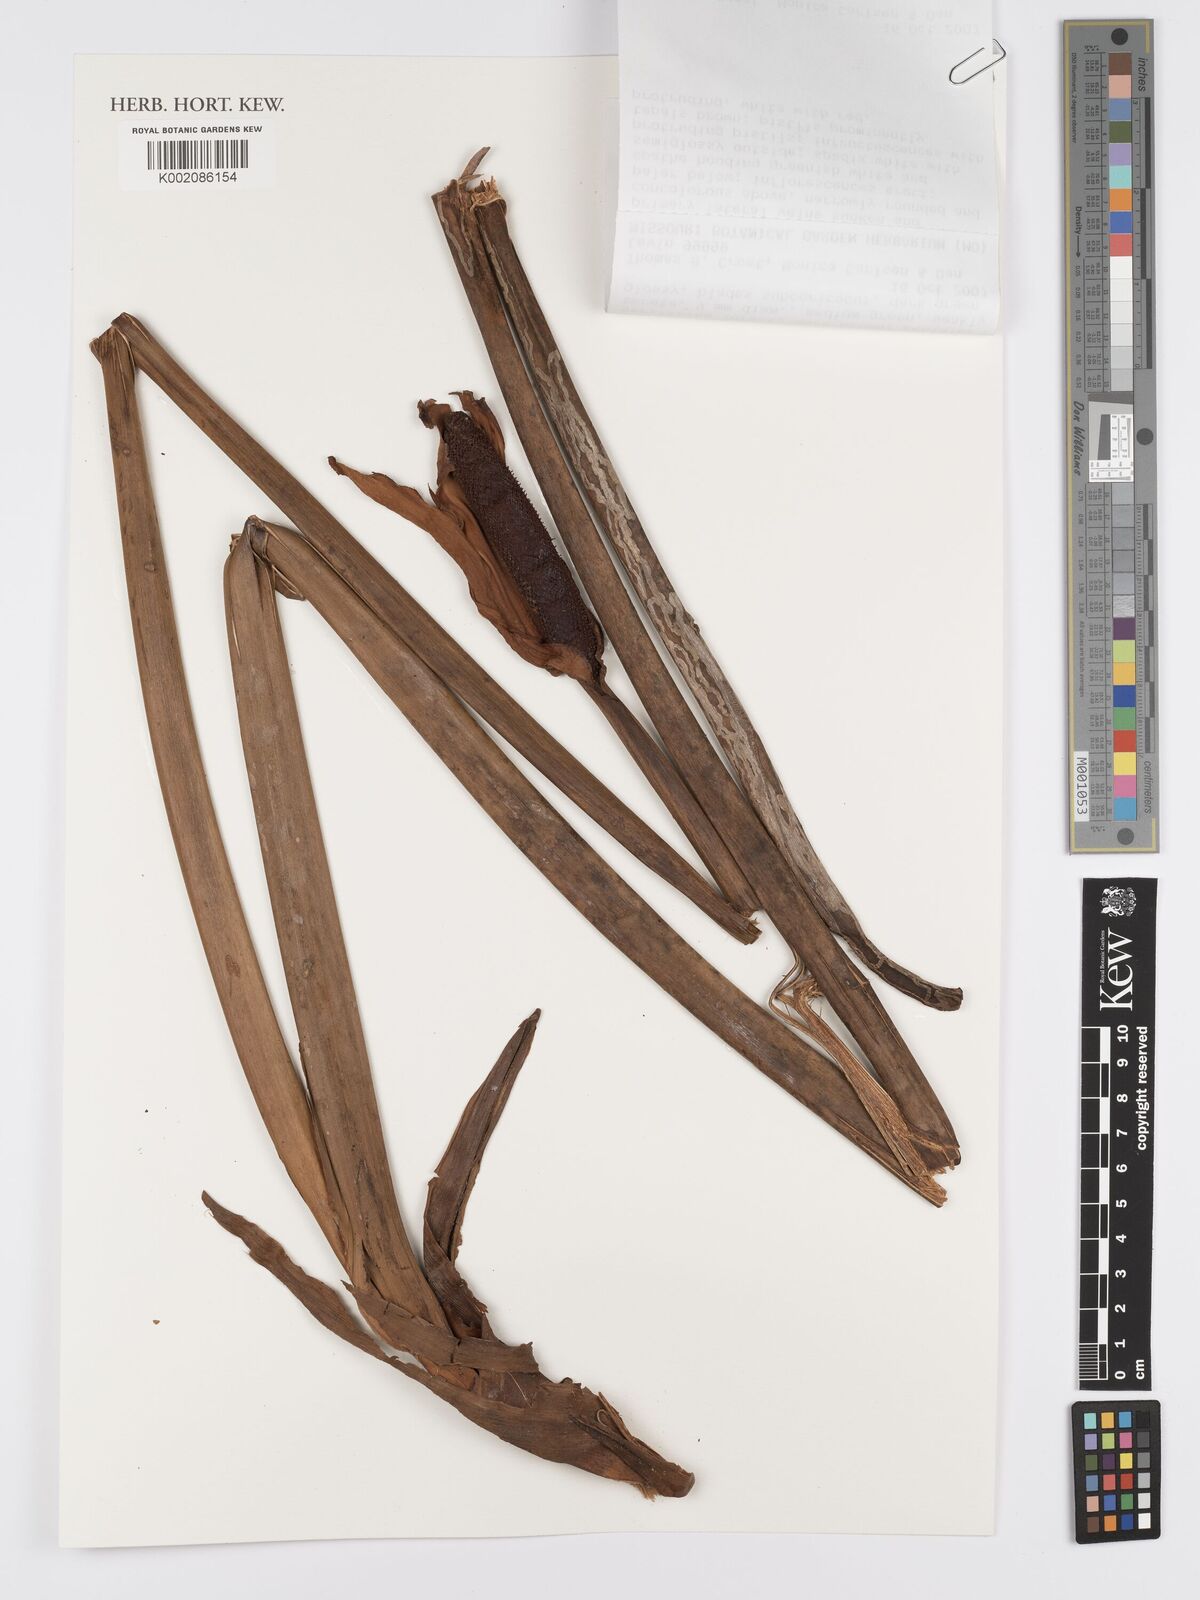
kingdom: Plantae
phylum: Tracheophyta
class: Liliopsida
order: Alismatales
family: Araceae
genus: Anthurium
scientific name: Anthurium genferryae
